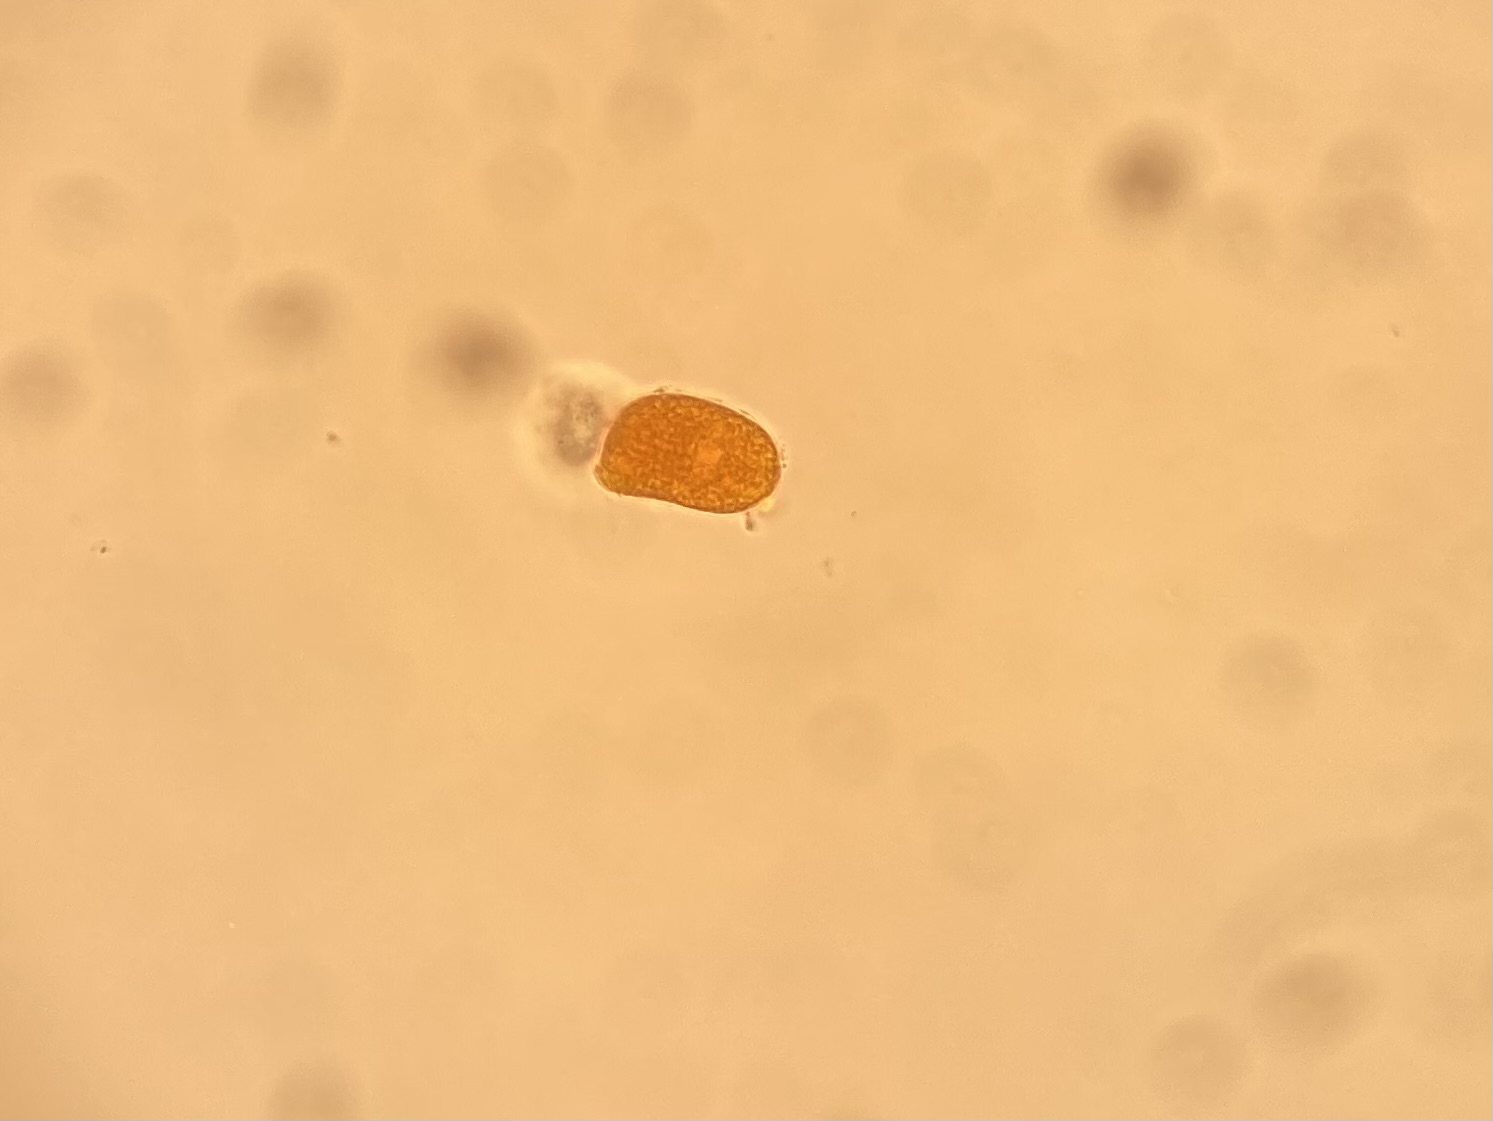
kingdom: Fungi
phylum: Basidiomycota
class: Pucciniomycetes
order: Pucciniales
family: Coleosporiaceae
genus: Coleosporium
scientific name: Coleosporium tussilaginis
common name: almindelig fyrrenålerust
